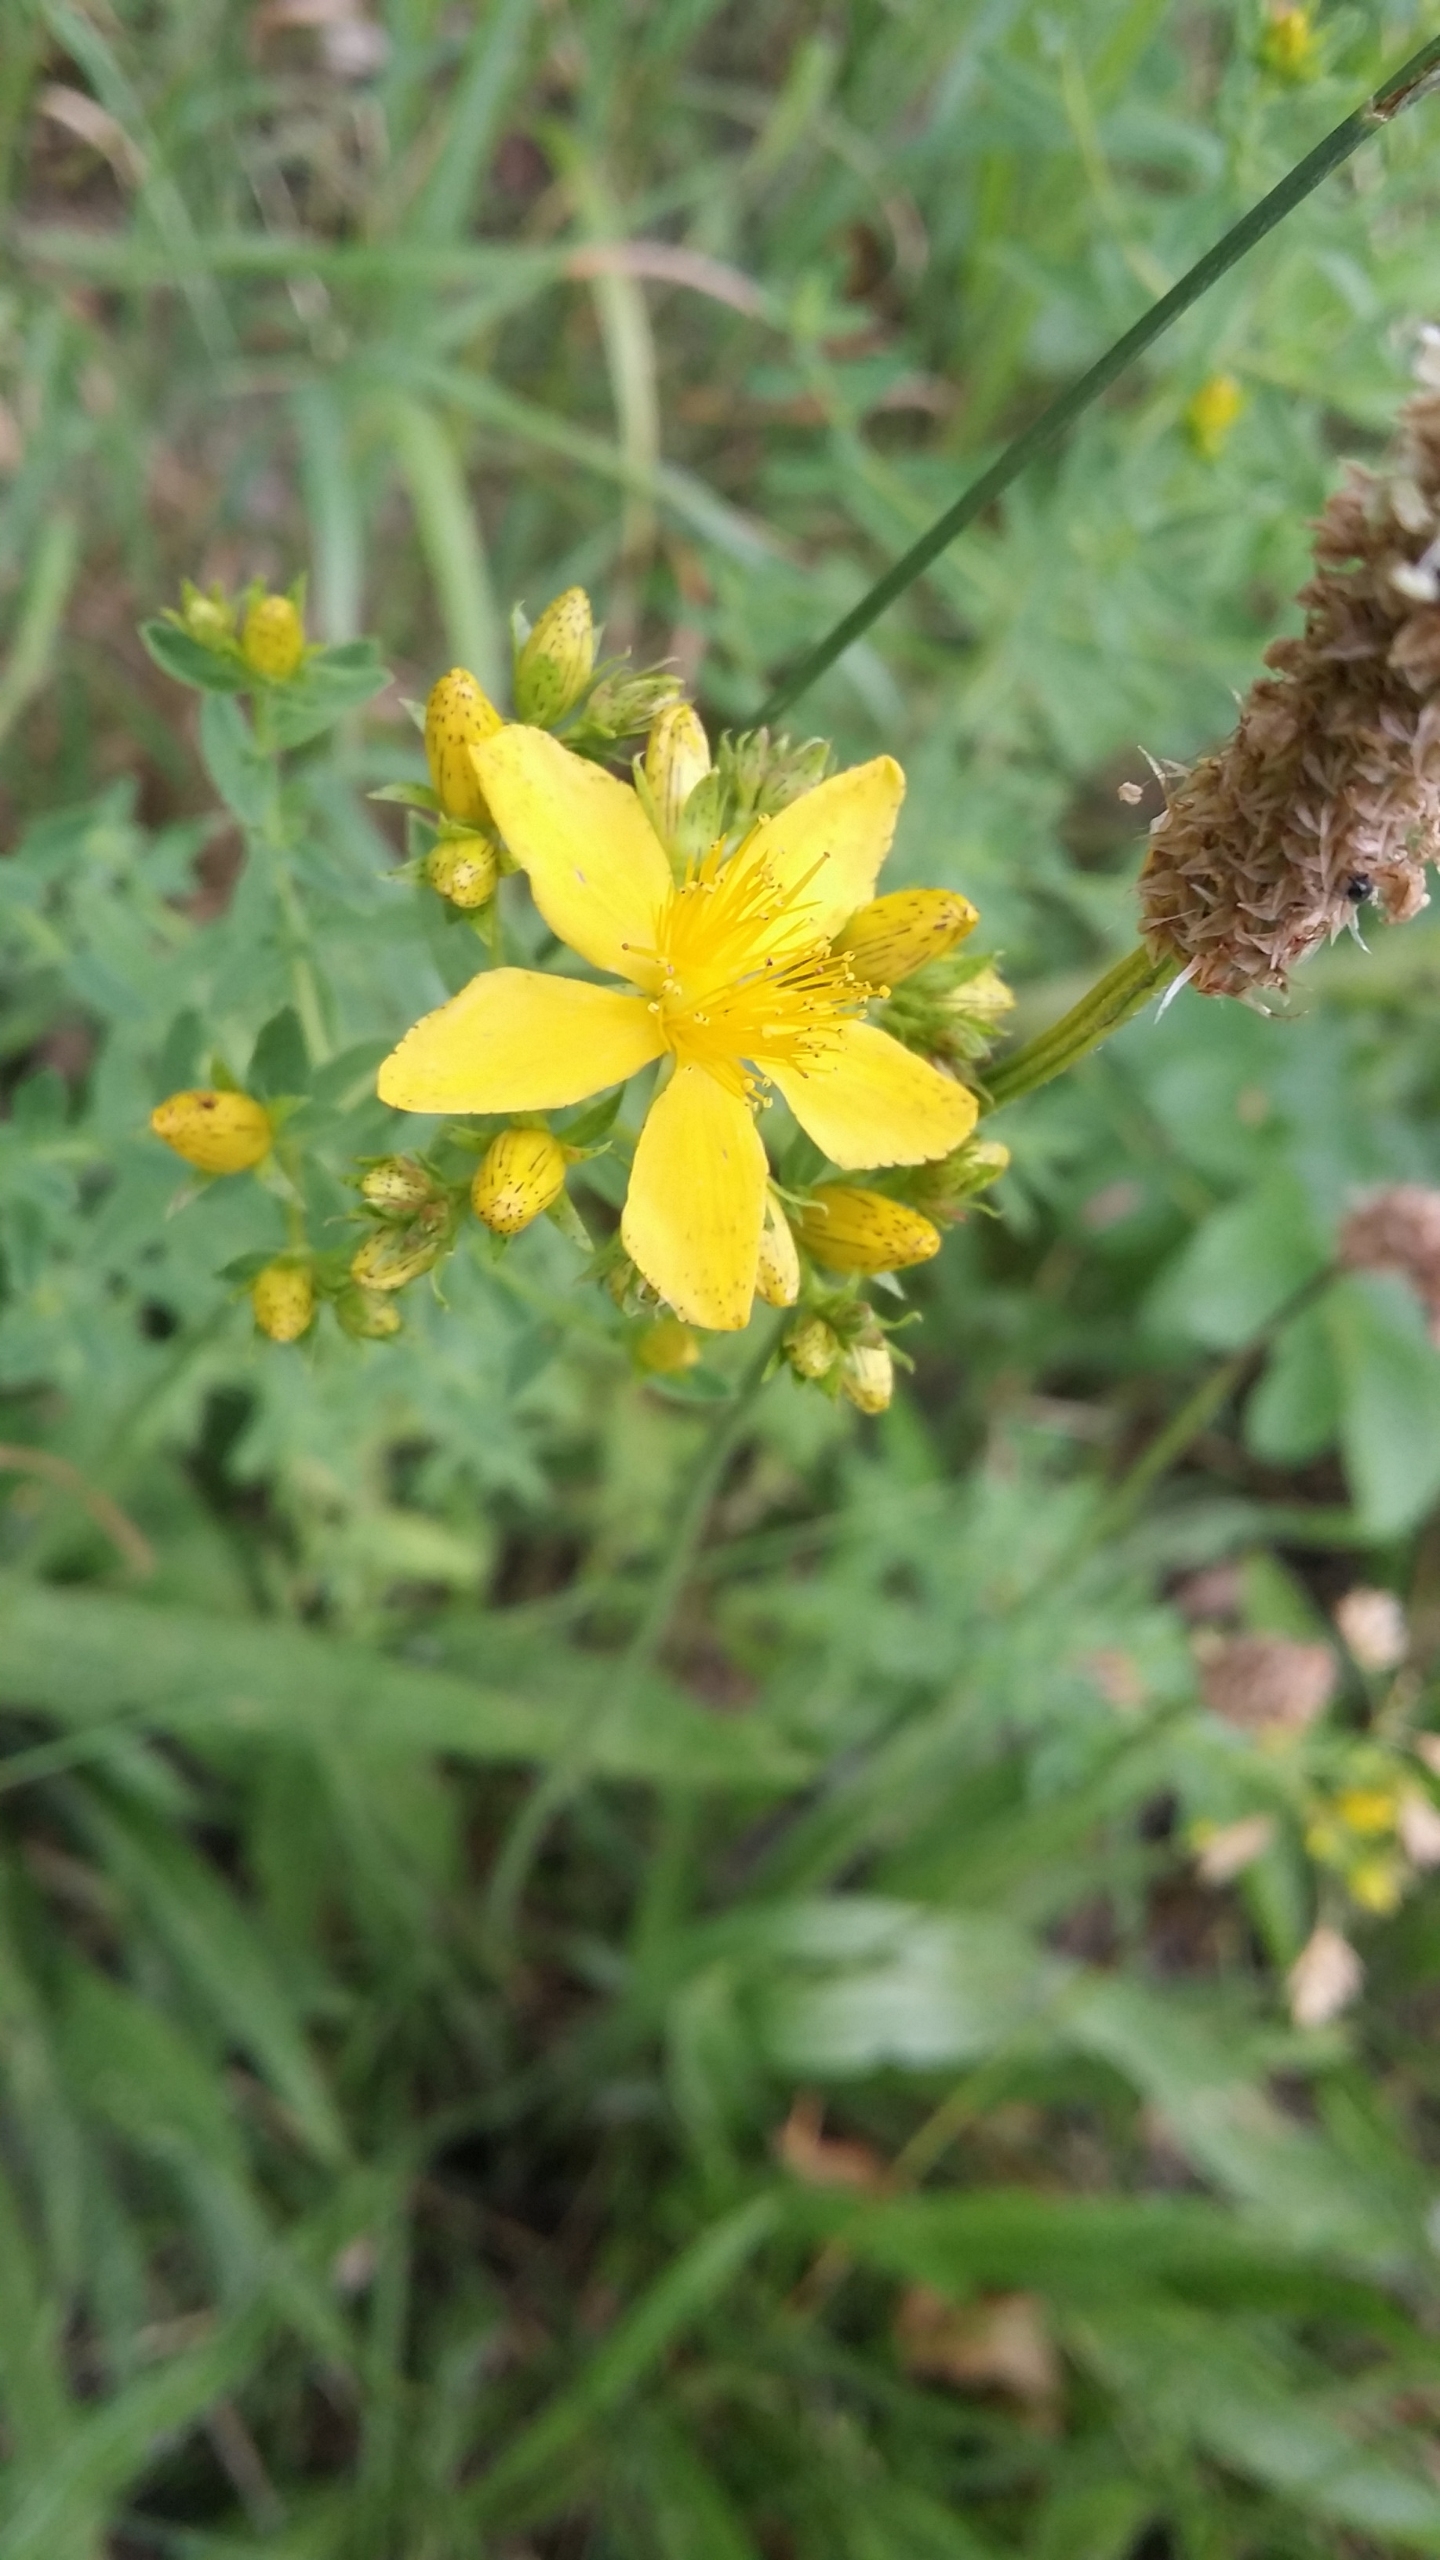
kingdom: Plantae
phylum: Tracheophyta
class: Magnoliopsida
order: Malpighiales
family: Hypericaceae
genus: Hypericum
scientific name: Hypericum perforatum
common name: Prikbladet perikon
